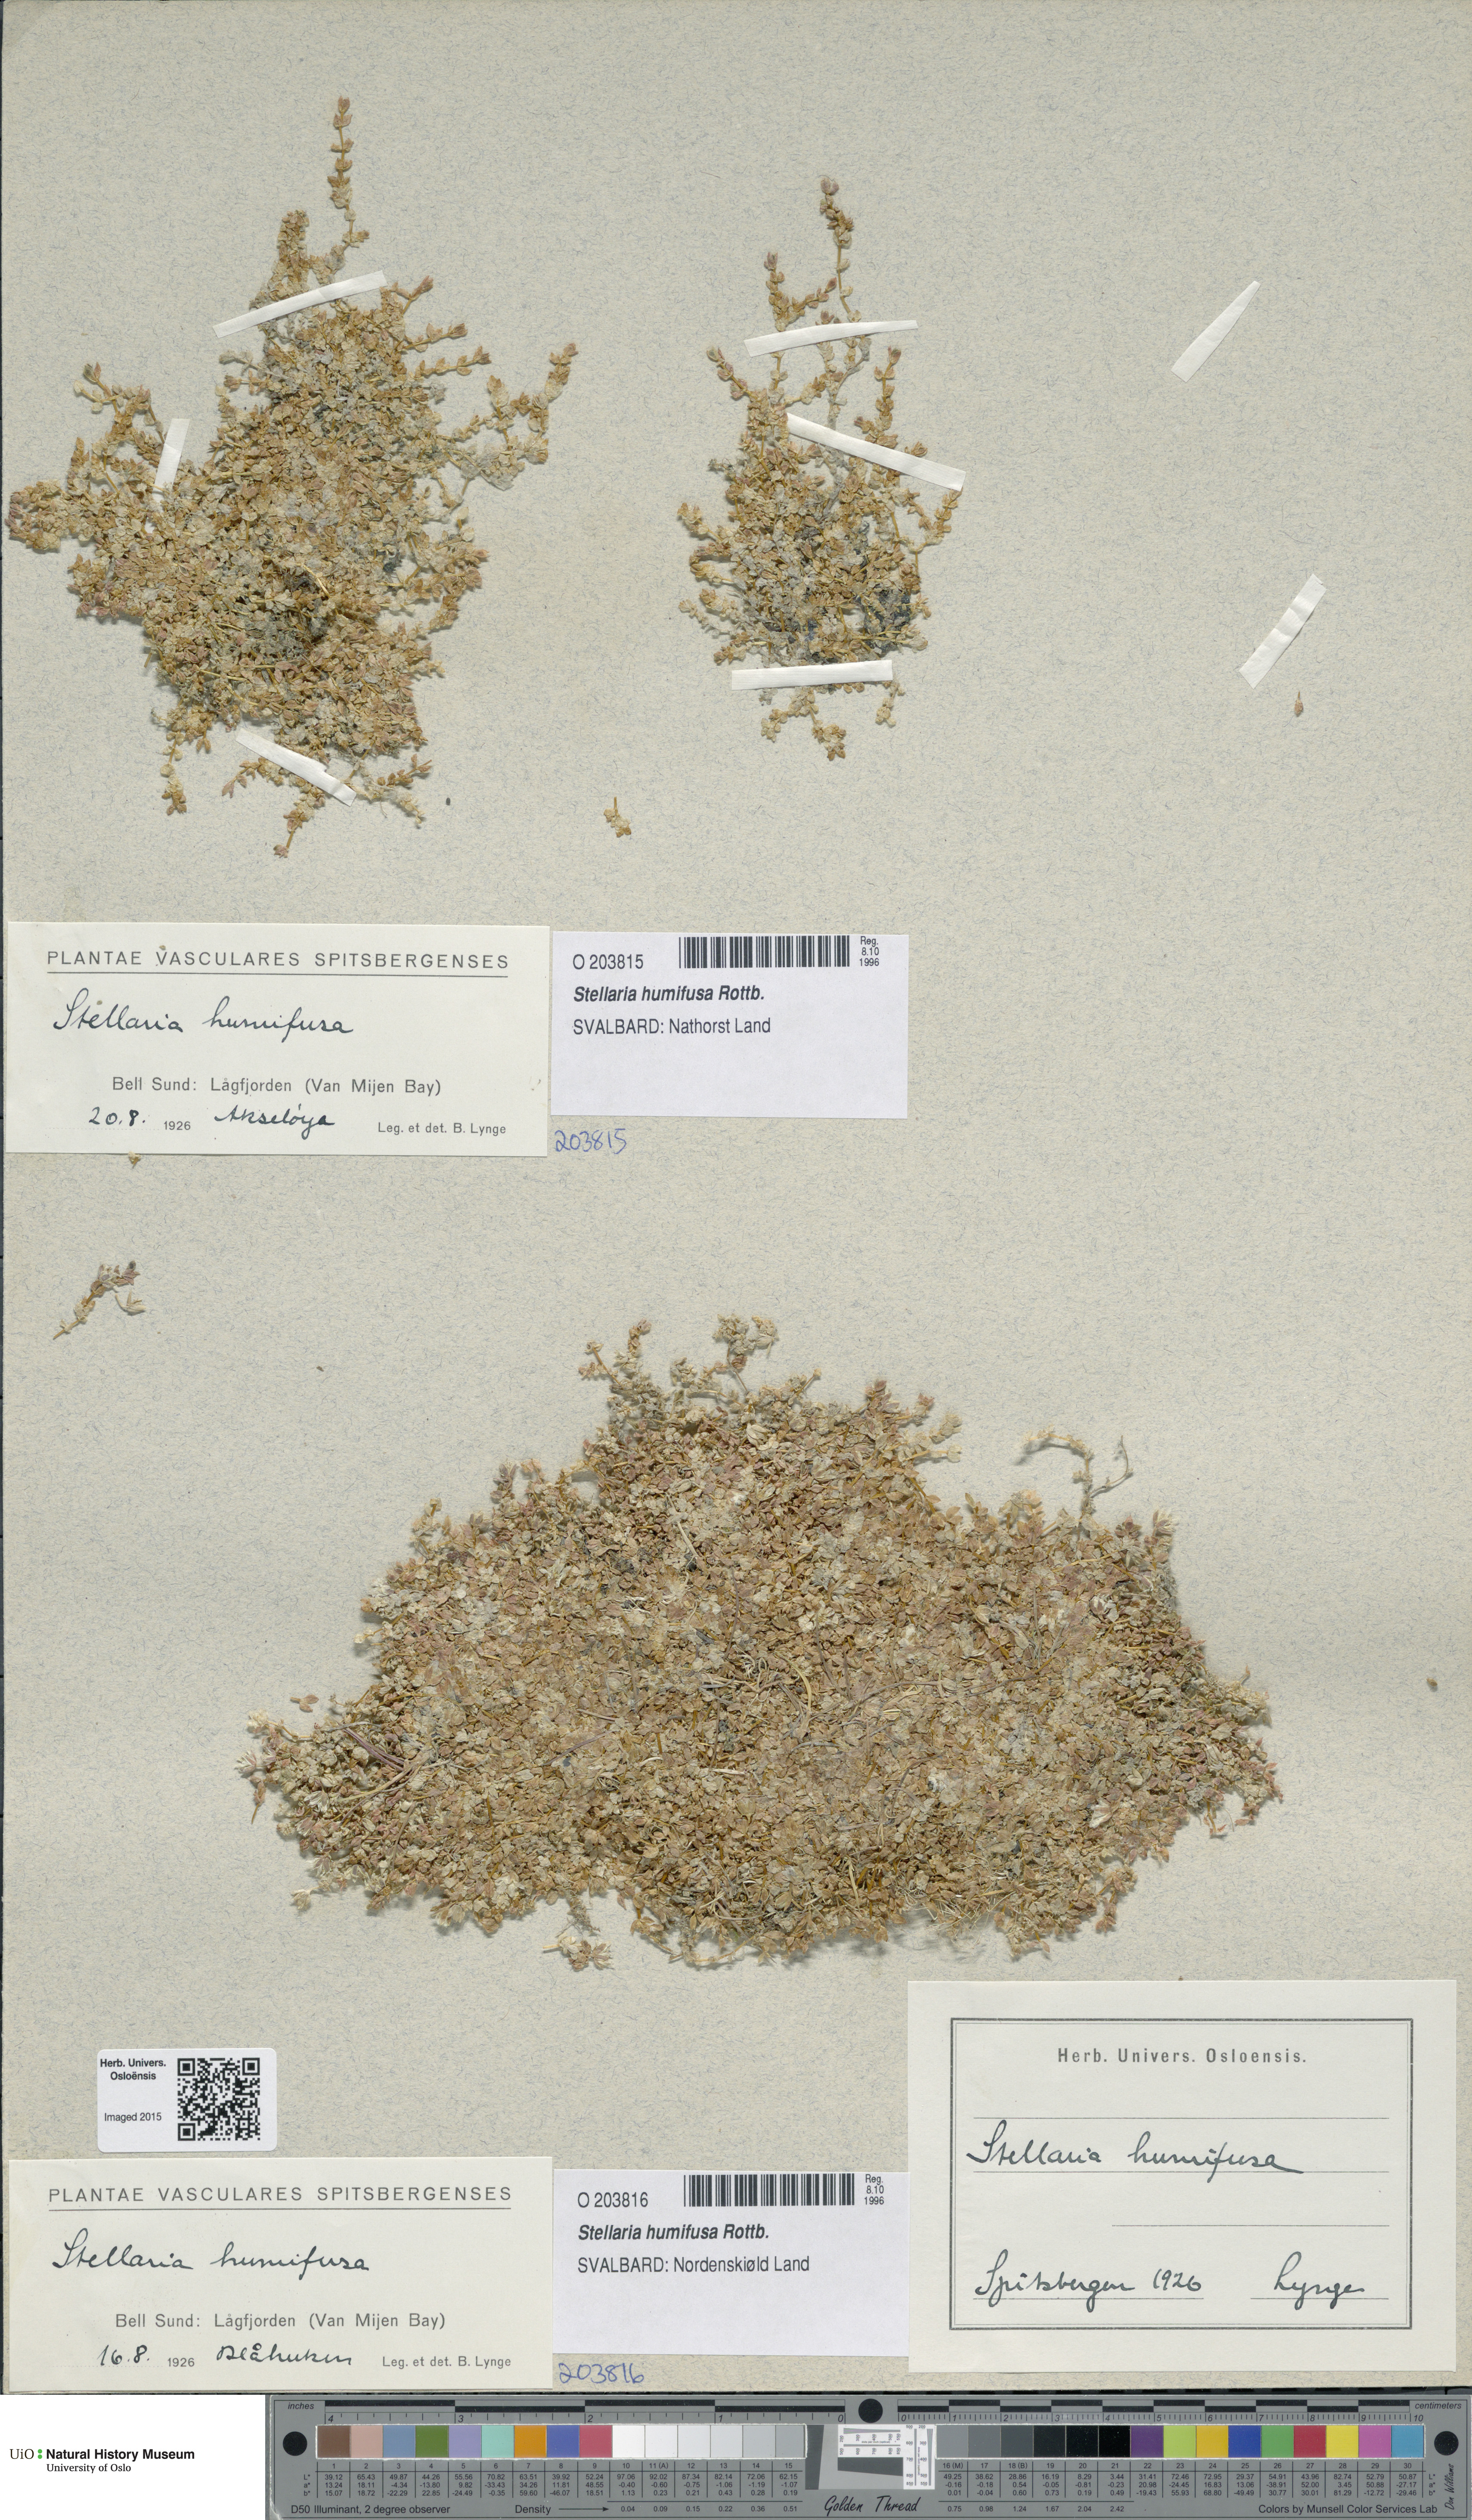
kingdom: Plantae
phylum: Tracheophyta
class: Magnoliopsida
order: Caryophyllales
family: Caryophyllaceae
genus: Stellaria
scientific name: Stellaria humifusa
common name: Creeping starwort
